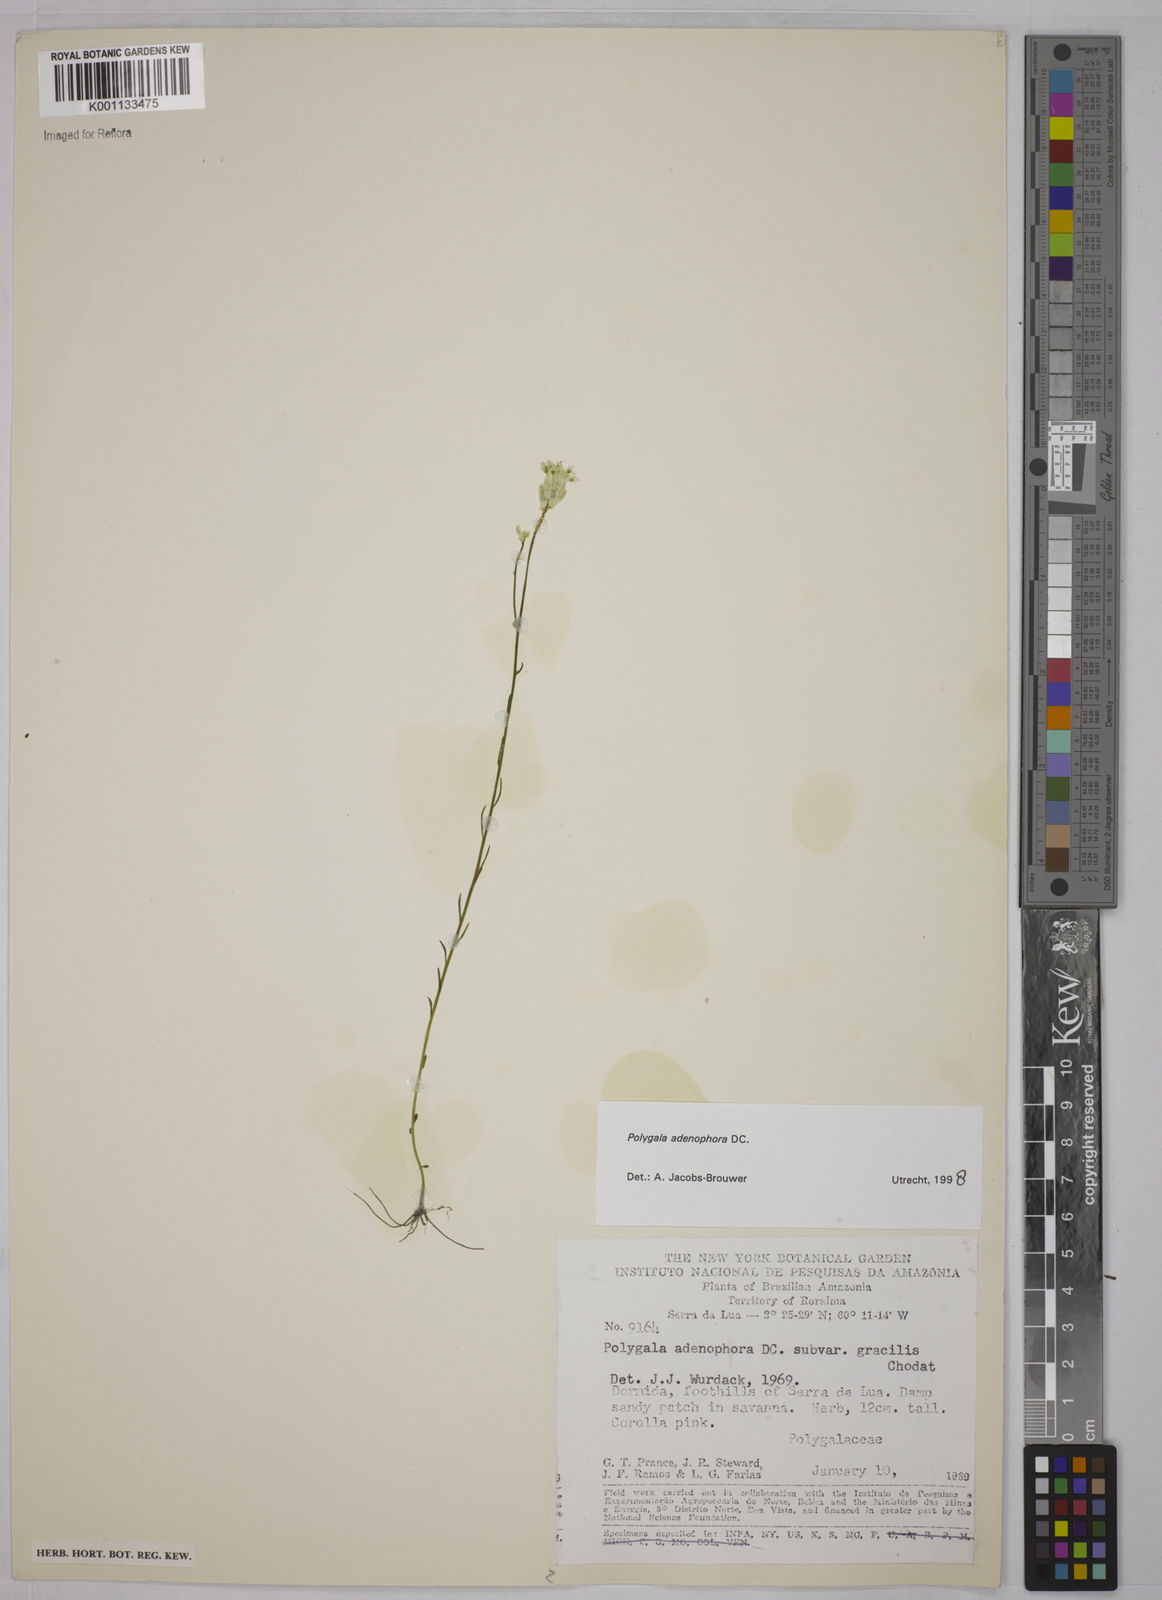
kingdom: Plantae
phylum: Tracheophyta
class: Magnoliopsida
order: Fabales
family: Polygalaceae
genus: Polygala
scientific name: Polygala adenophora
